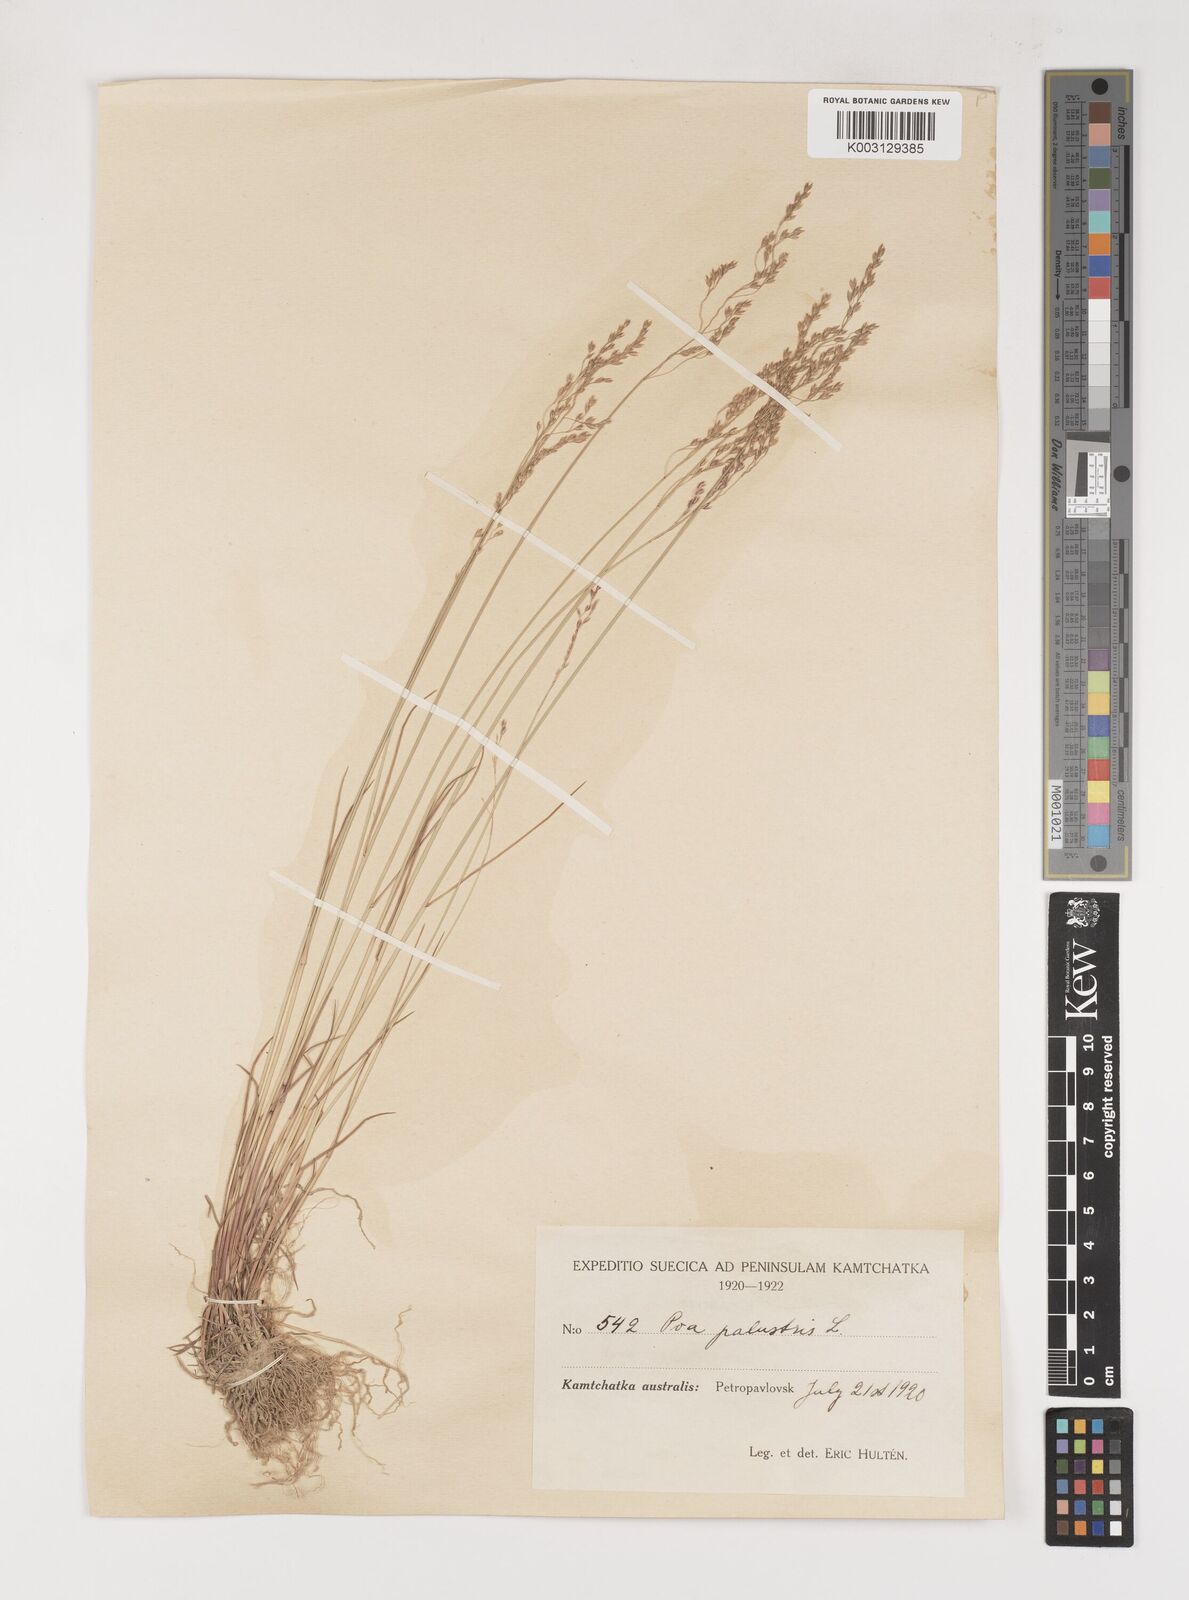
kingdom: Plantae
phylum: Tracheophyta
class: Liliopsida
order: Poales
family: Poaceae
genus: Poa
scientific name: Poa palustris
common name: Swamp meadow-grass
